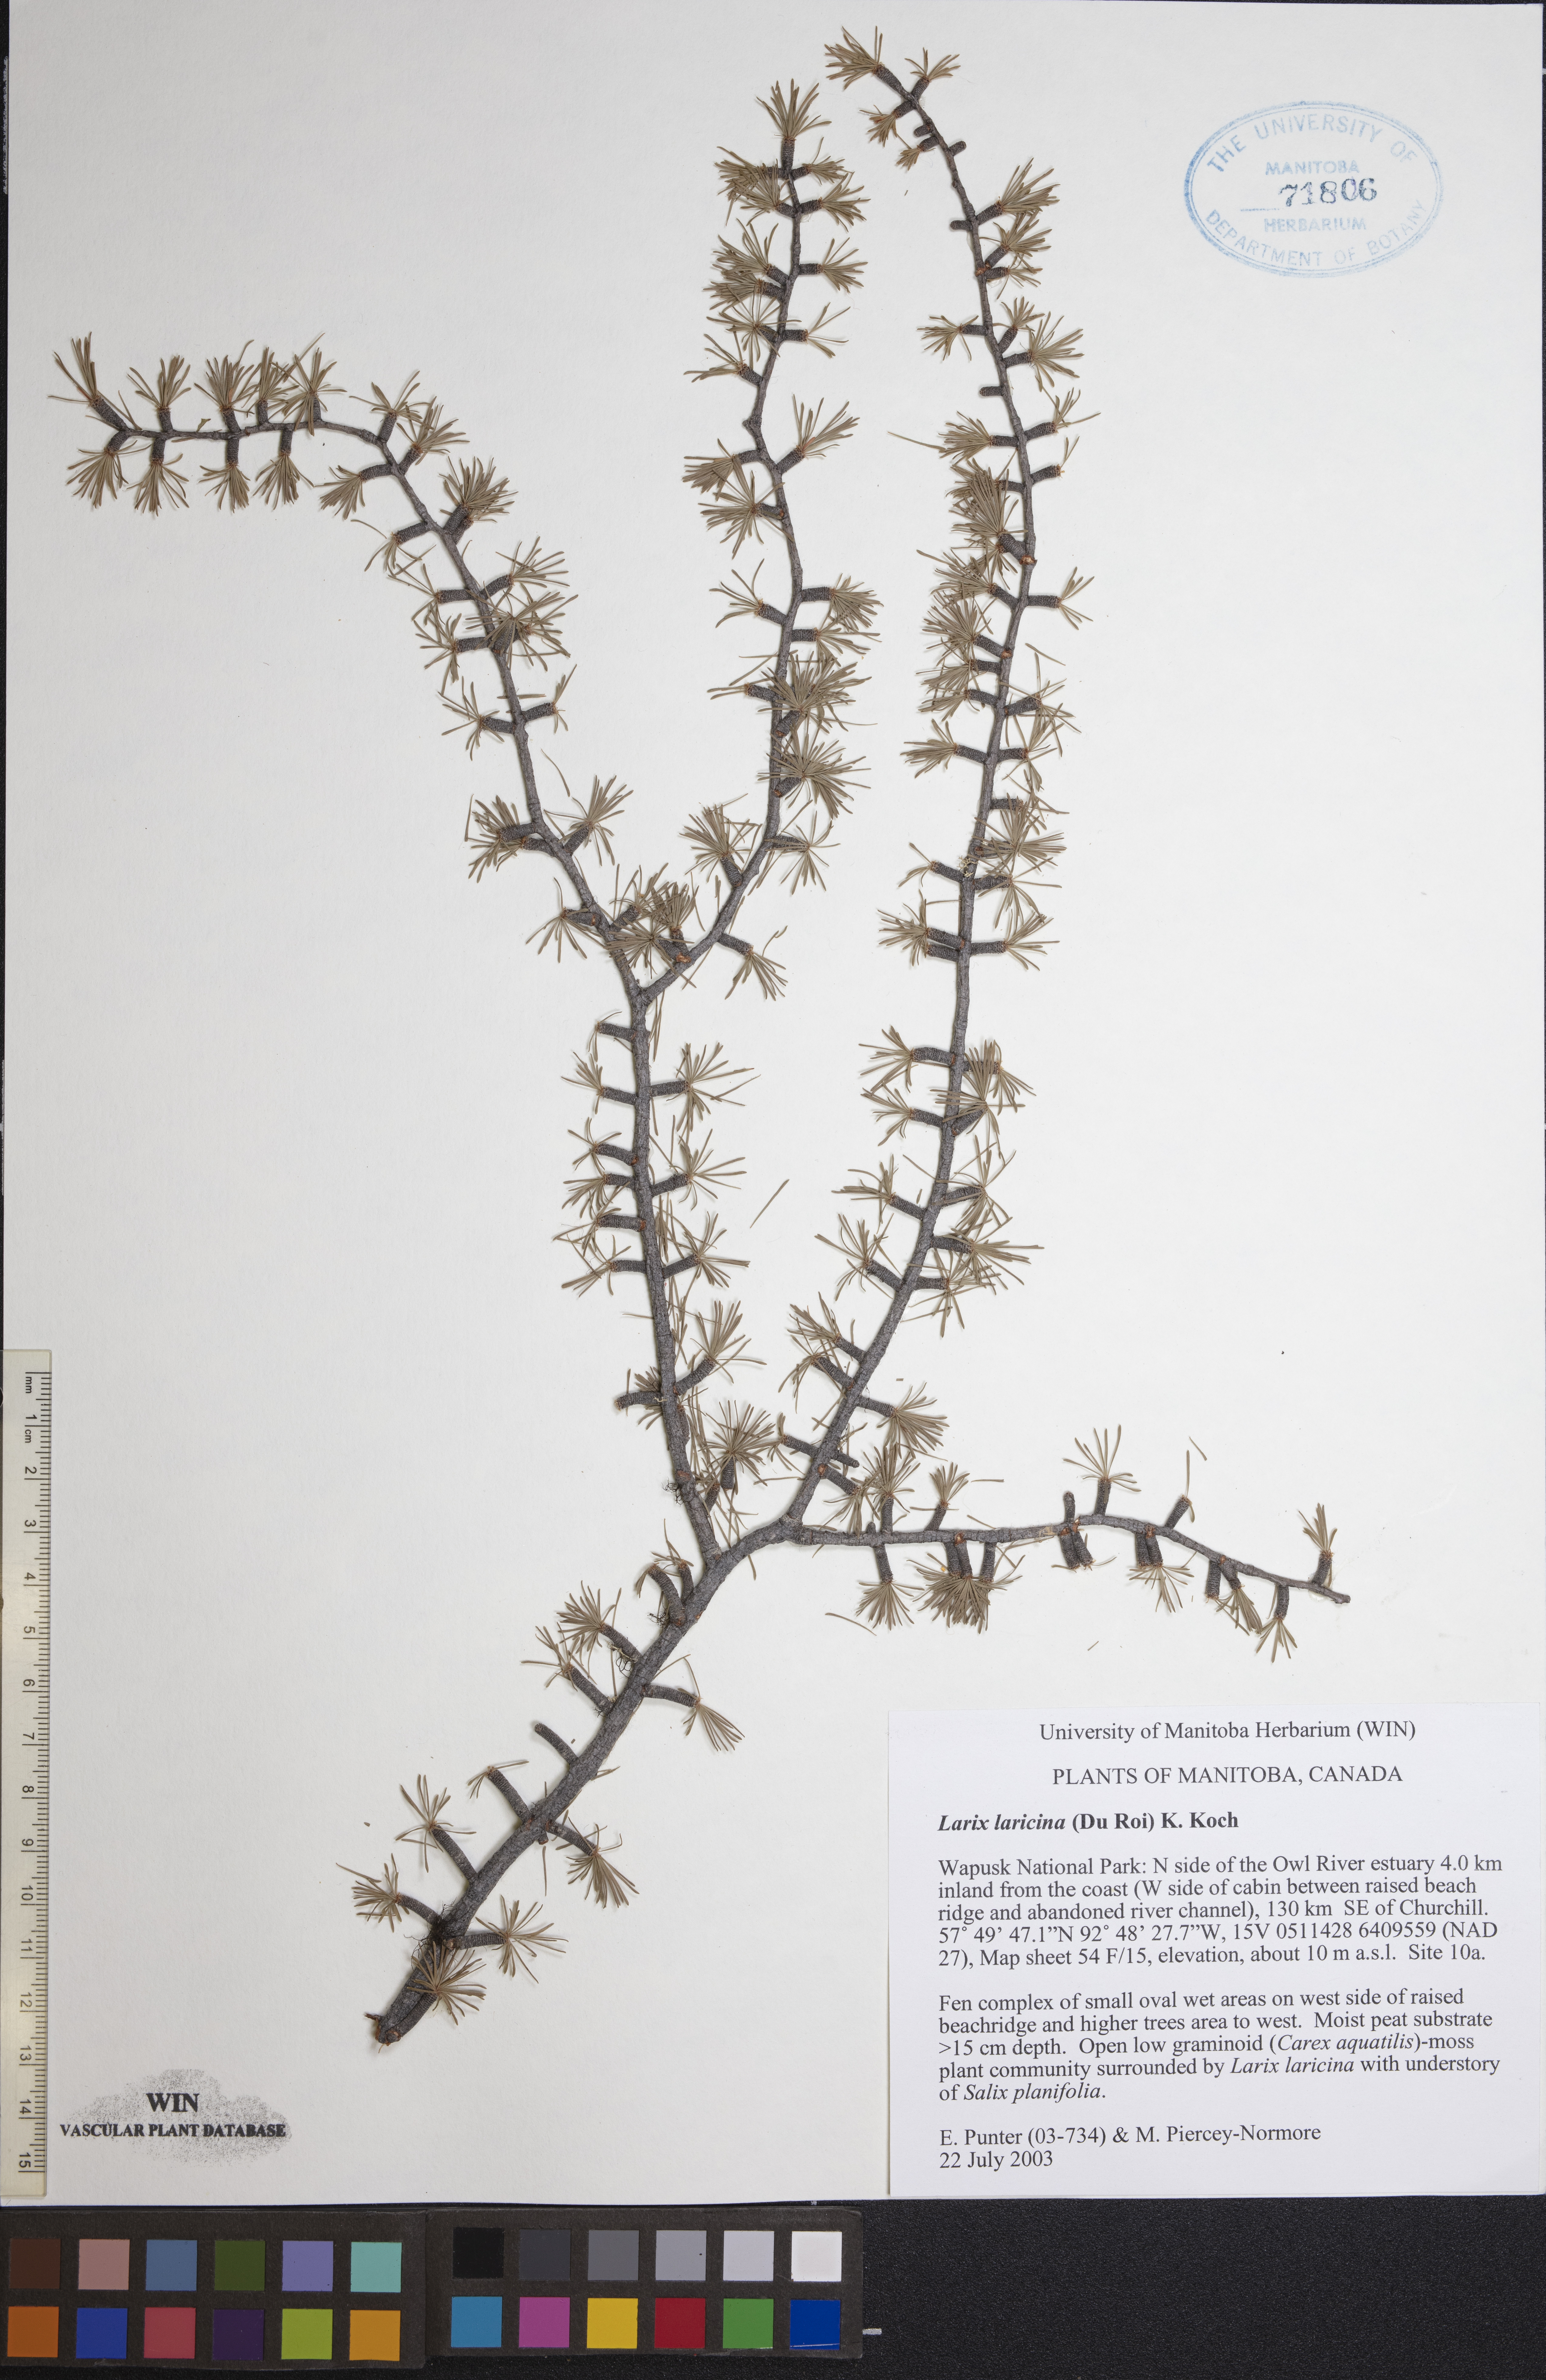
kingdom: Plantae
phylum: Tracheophyta
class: Pinopsida
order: Pinales
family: Pinaceae
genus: Larix
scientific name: Larix laricina
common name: American larch
